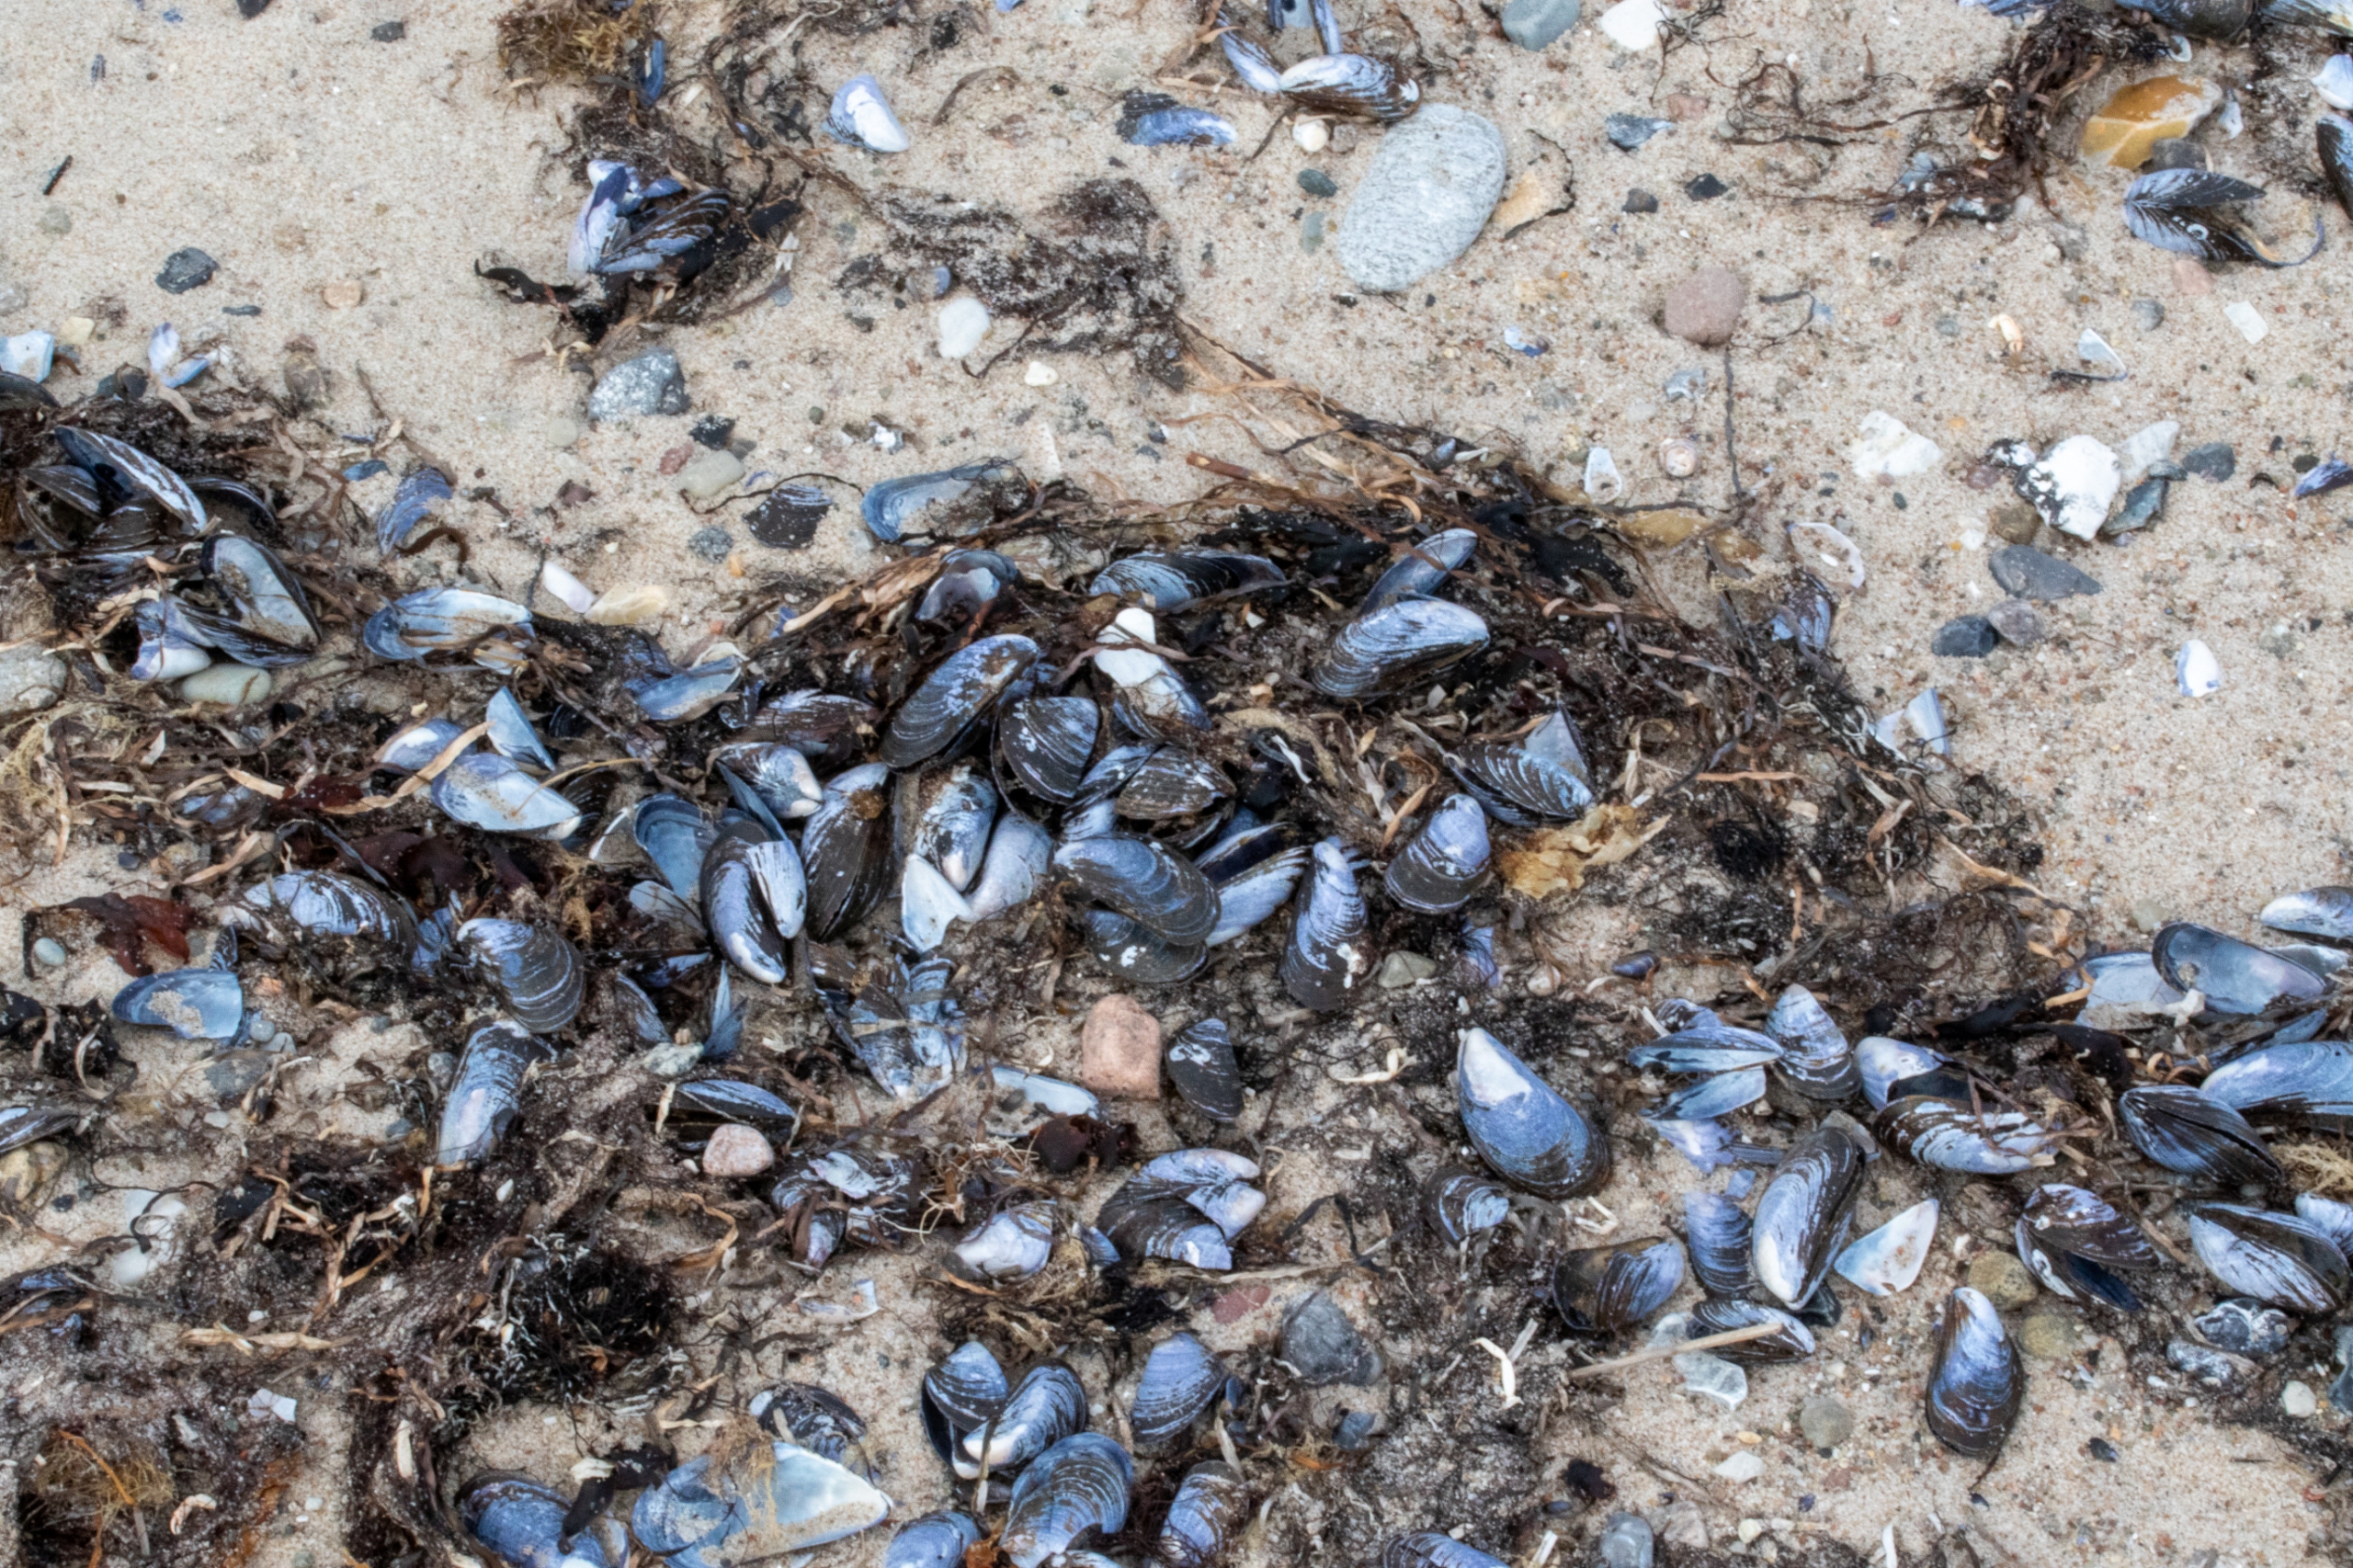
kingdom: Animalia
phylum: Mollusca
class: Bivalvia
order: Mytilida
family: Mytilidae
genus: Mytilus
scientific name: Mytilus edulis
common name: Blåmusling
